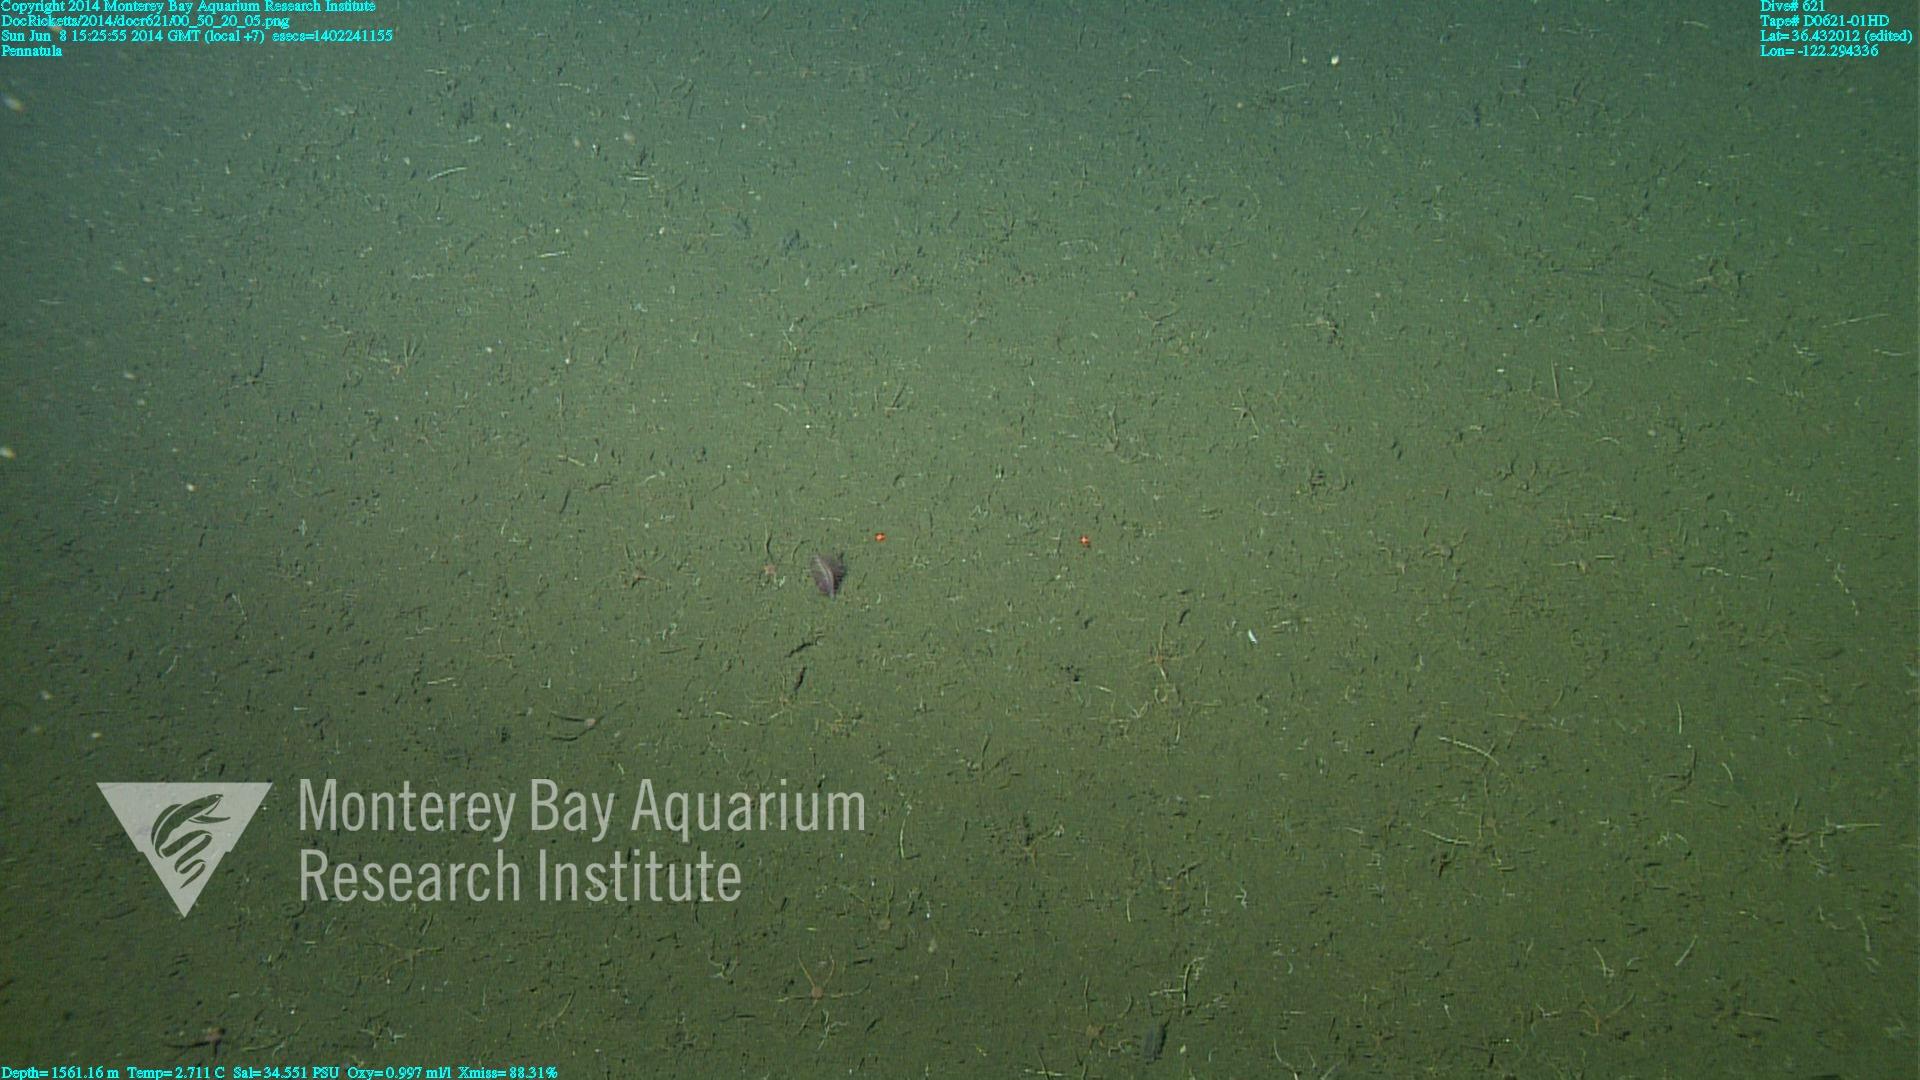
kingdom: Animalia
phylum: Cnidaria
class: Anthozoa
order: Scleralcyonacea
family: Pennatulidae
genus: Pennatula
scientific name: Pennatula
